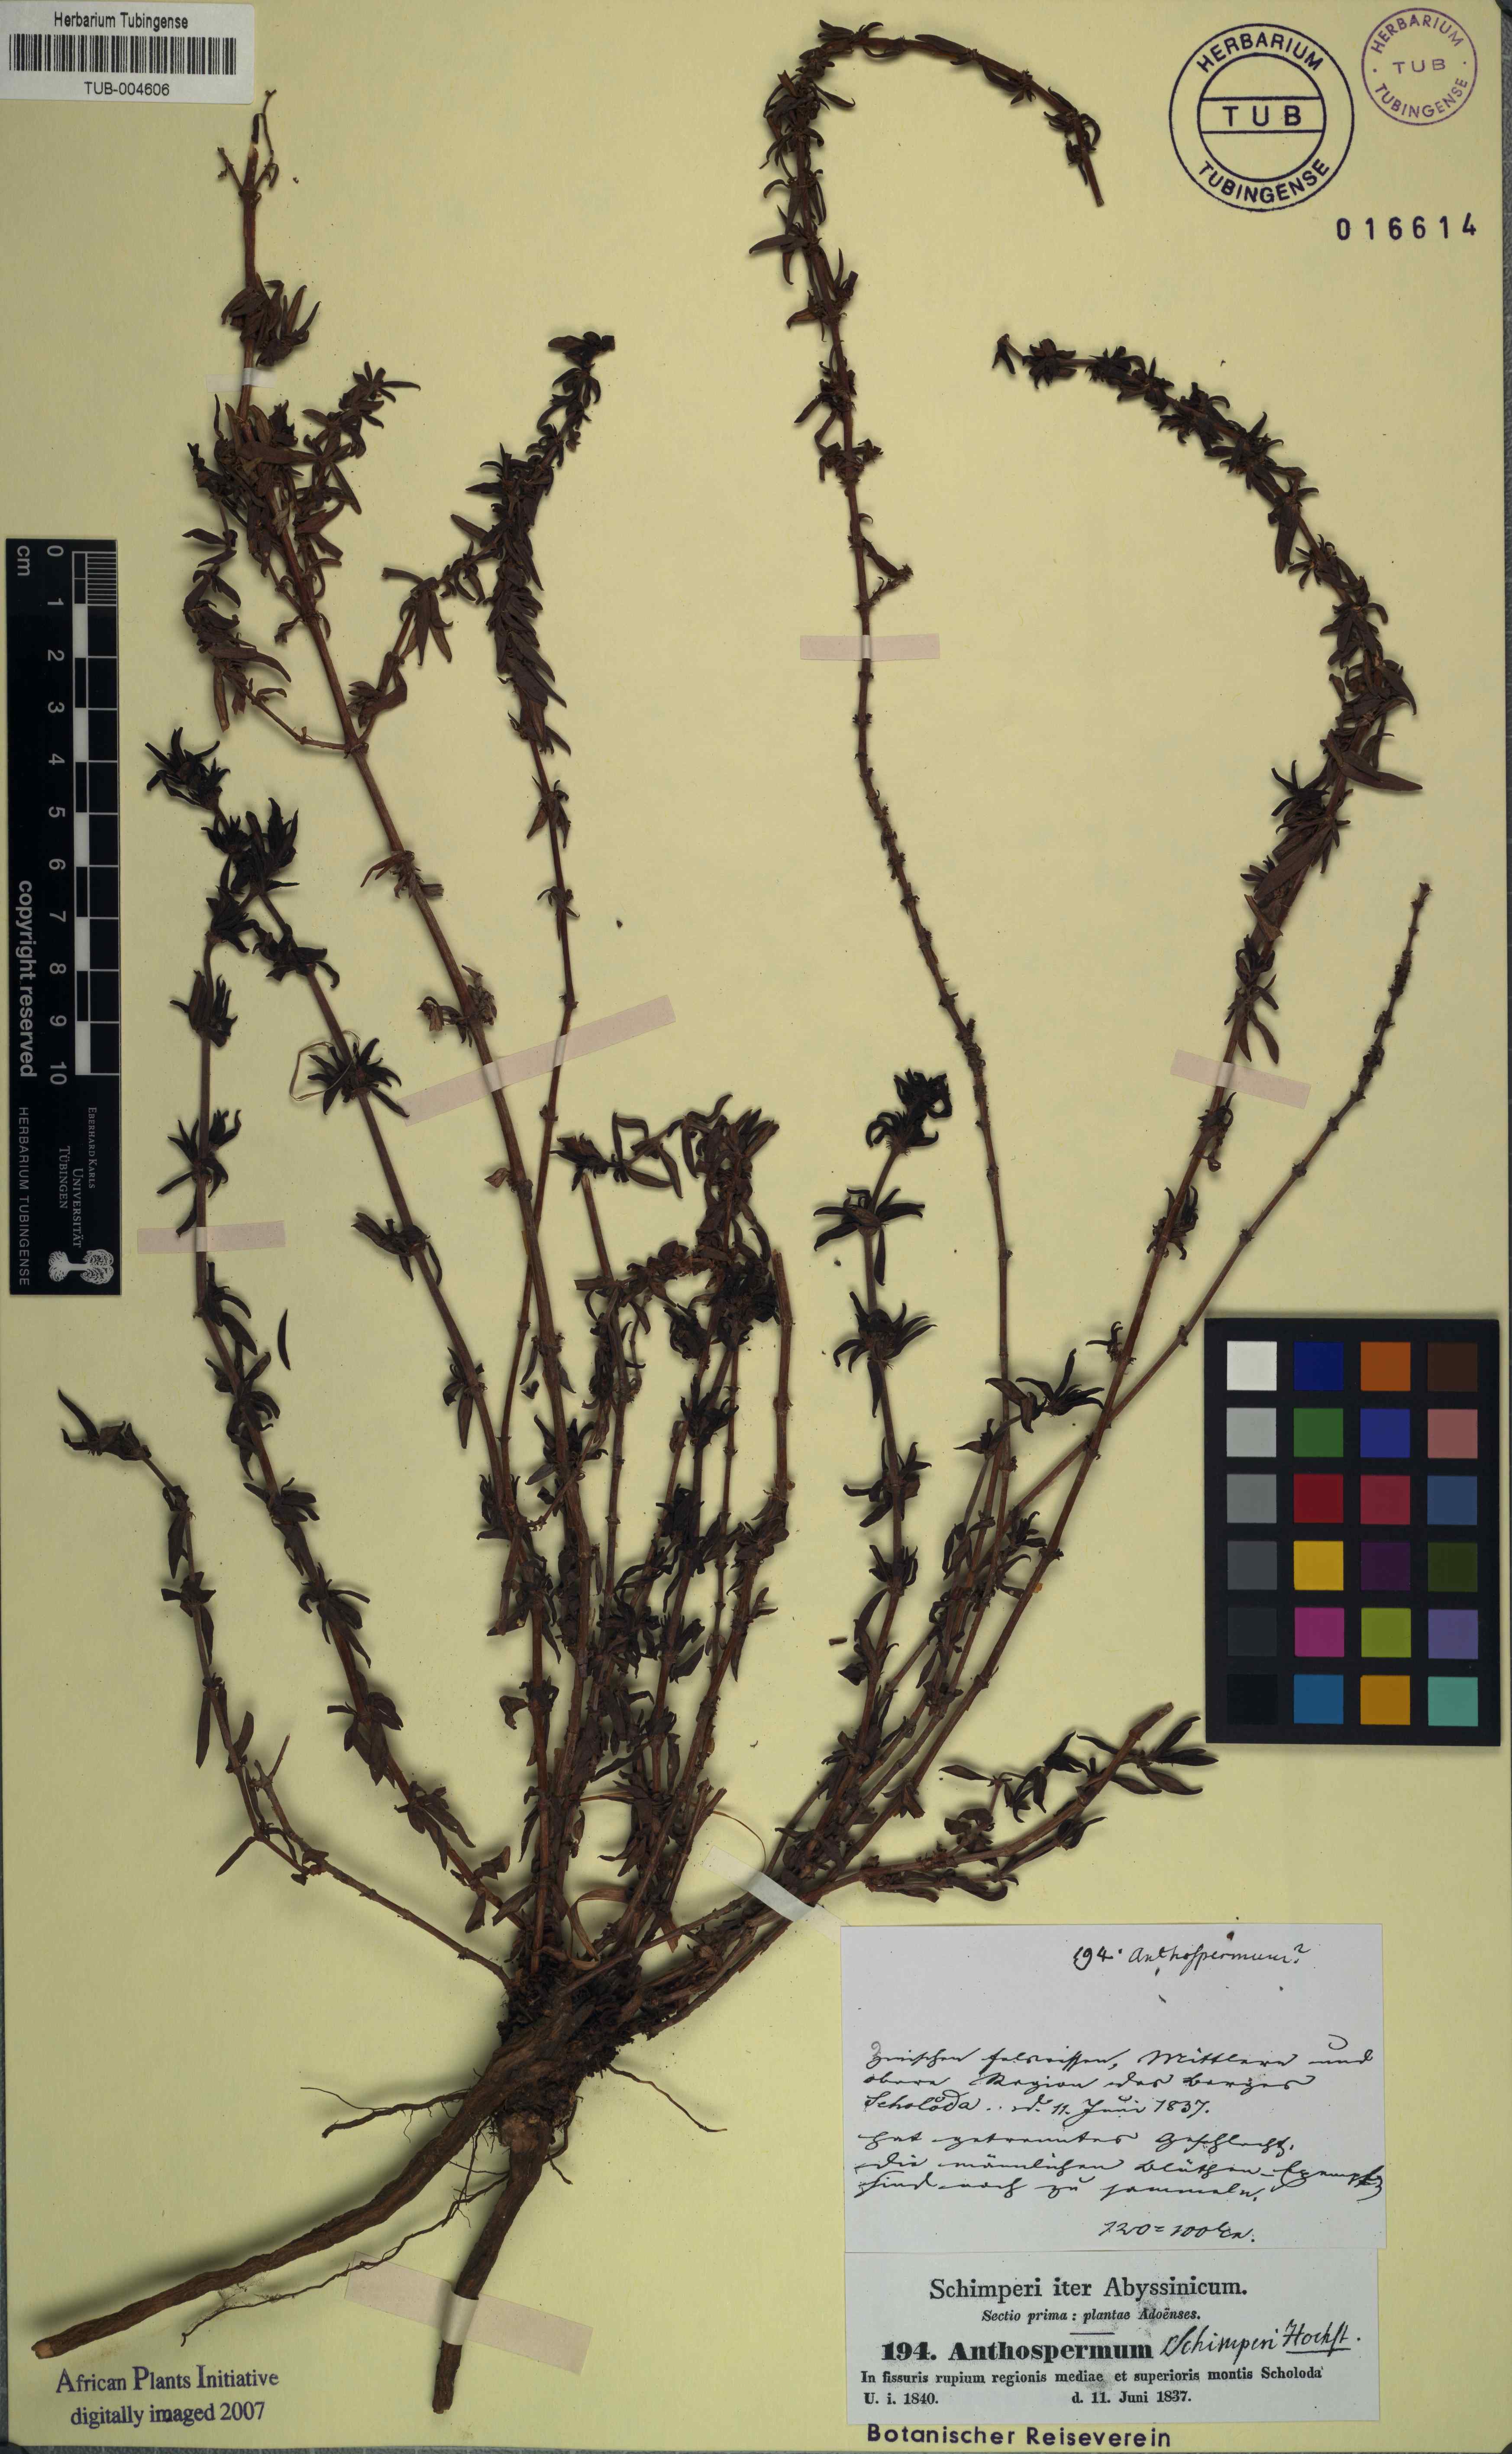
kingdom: Plantae
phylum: Tracheophyta
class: Magnoliopsida
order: Gentianales
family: Rubiaceae
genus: Anthospermum
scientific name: Anthospermum
